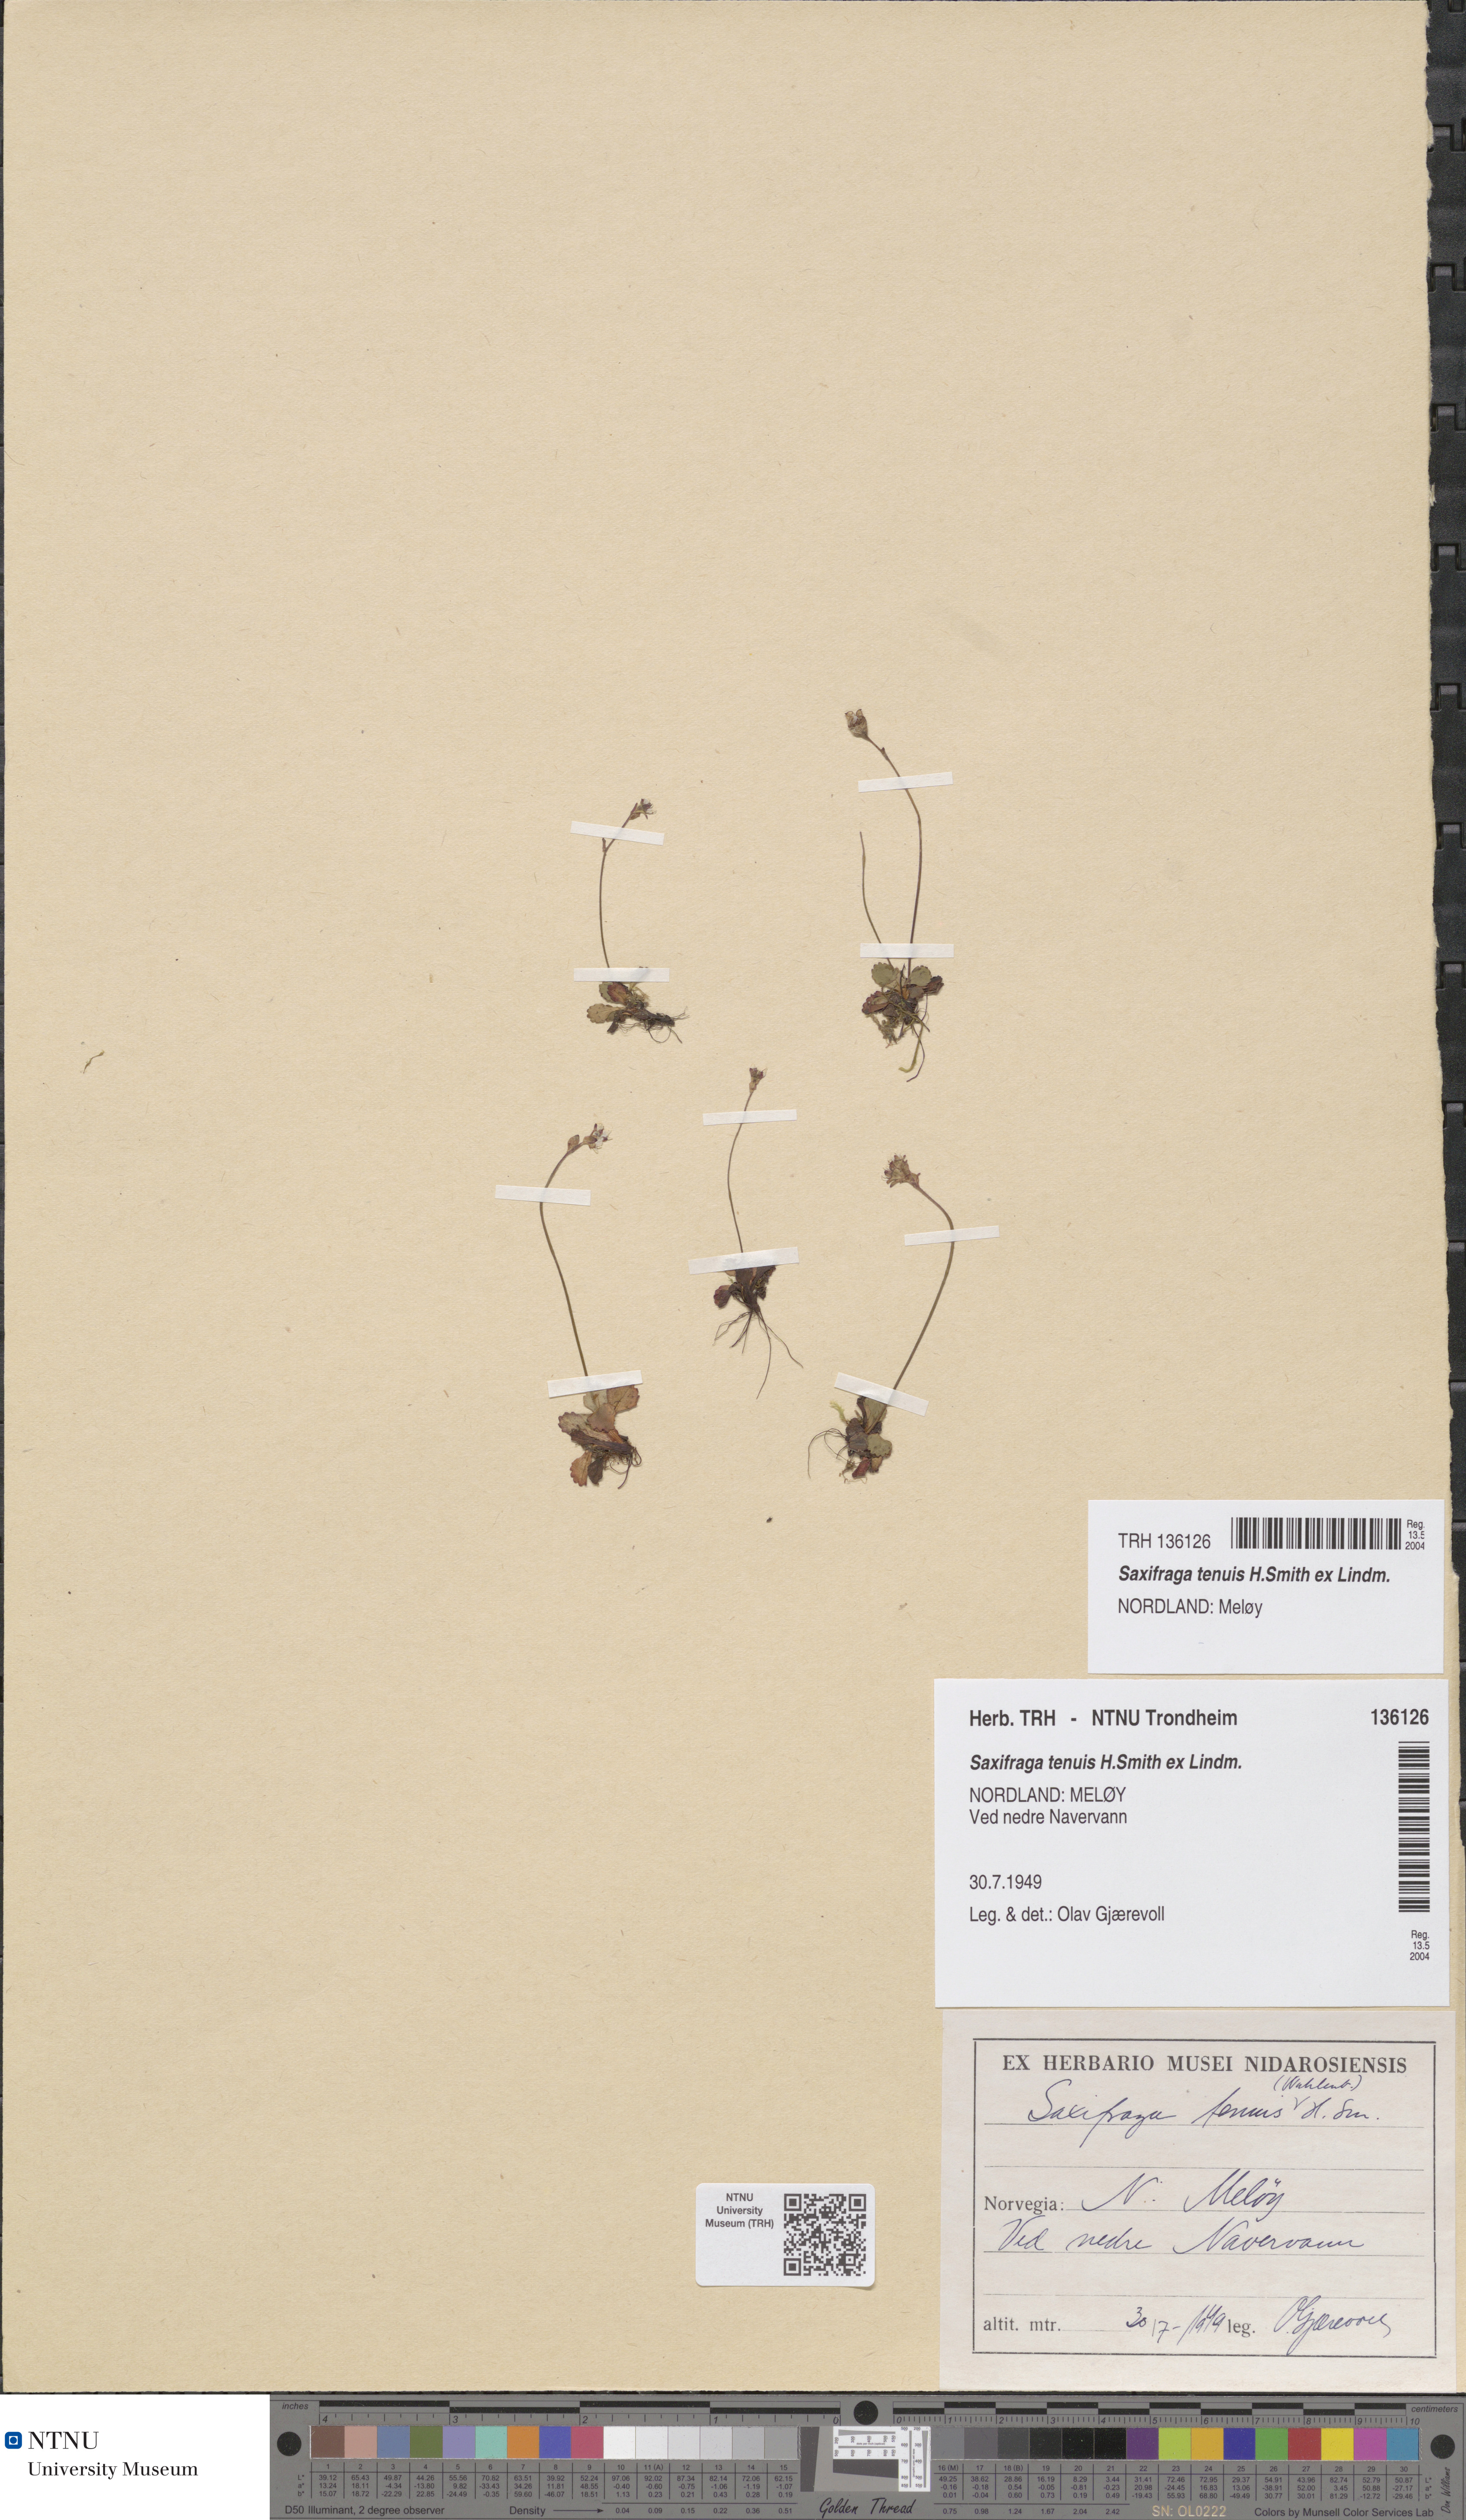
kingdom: Plantae
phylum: Tracheophyta
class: Magnoliopsida
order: Saxifragales
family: Saxifragaceae
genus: Micranthes
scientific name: Micranthes tenuis
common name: Ottertail pass saxifrage
